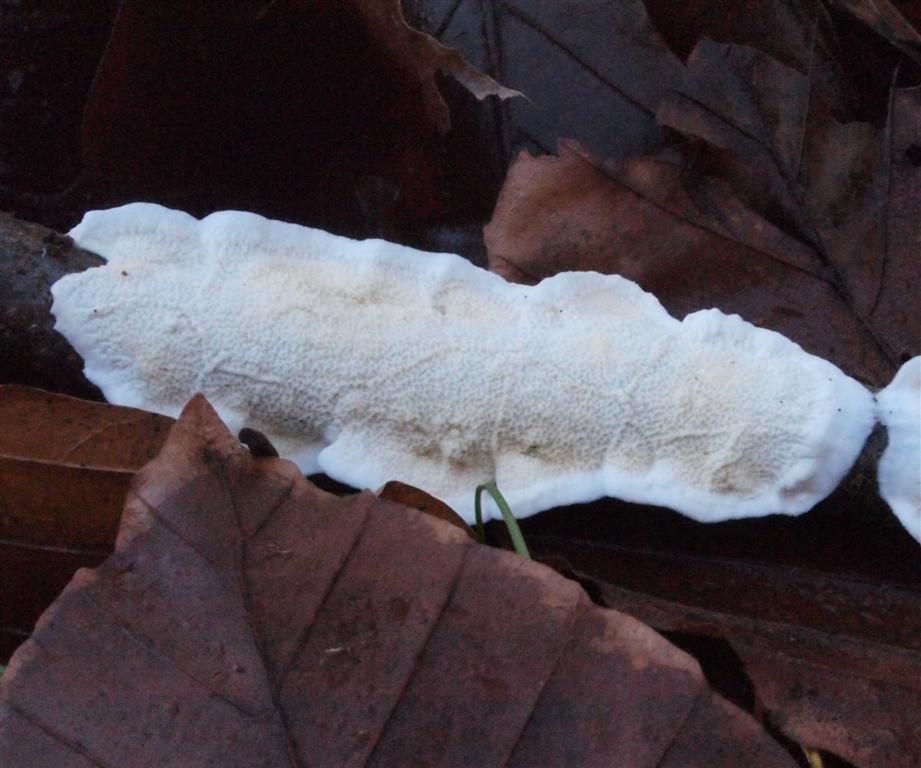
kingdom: Fungi
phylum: Basidiomycota
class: Agaricomycetes
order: Polyporales
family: Irpicaceae
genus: Byssomerulius
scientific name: Byssomerulius corium
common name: læder-åresvamp
